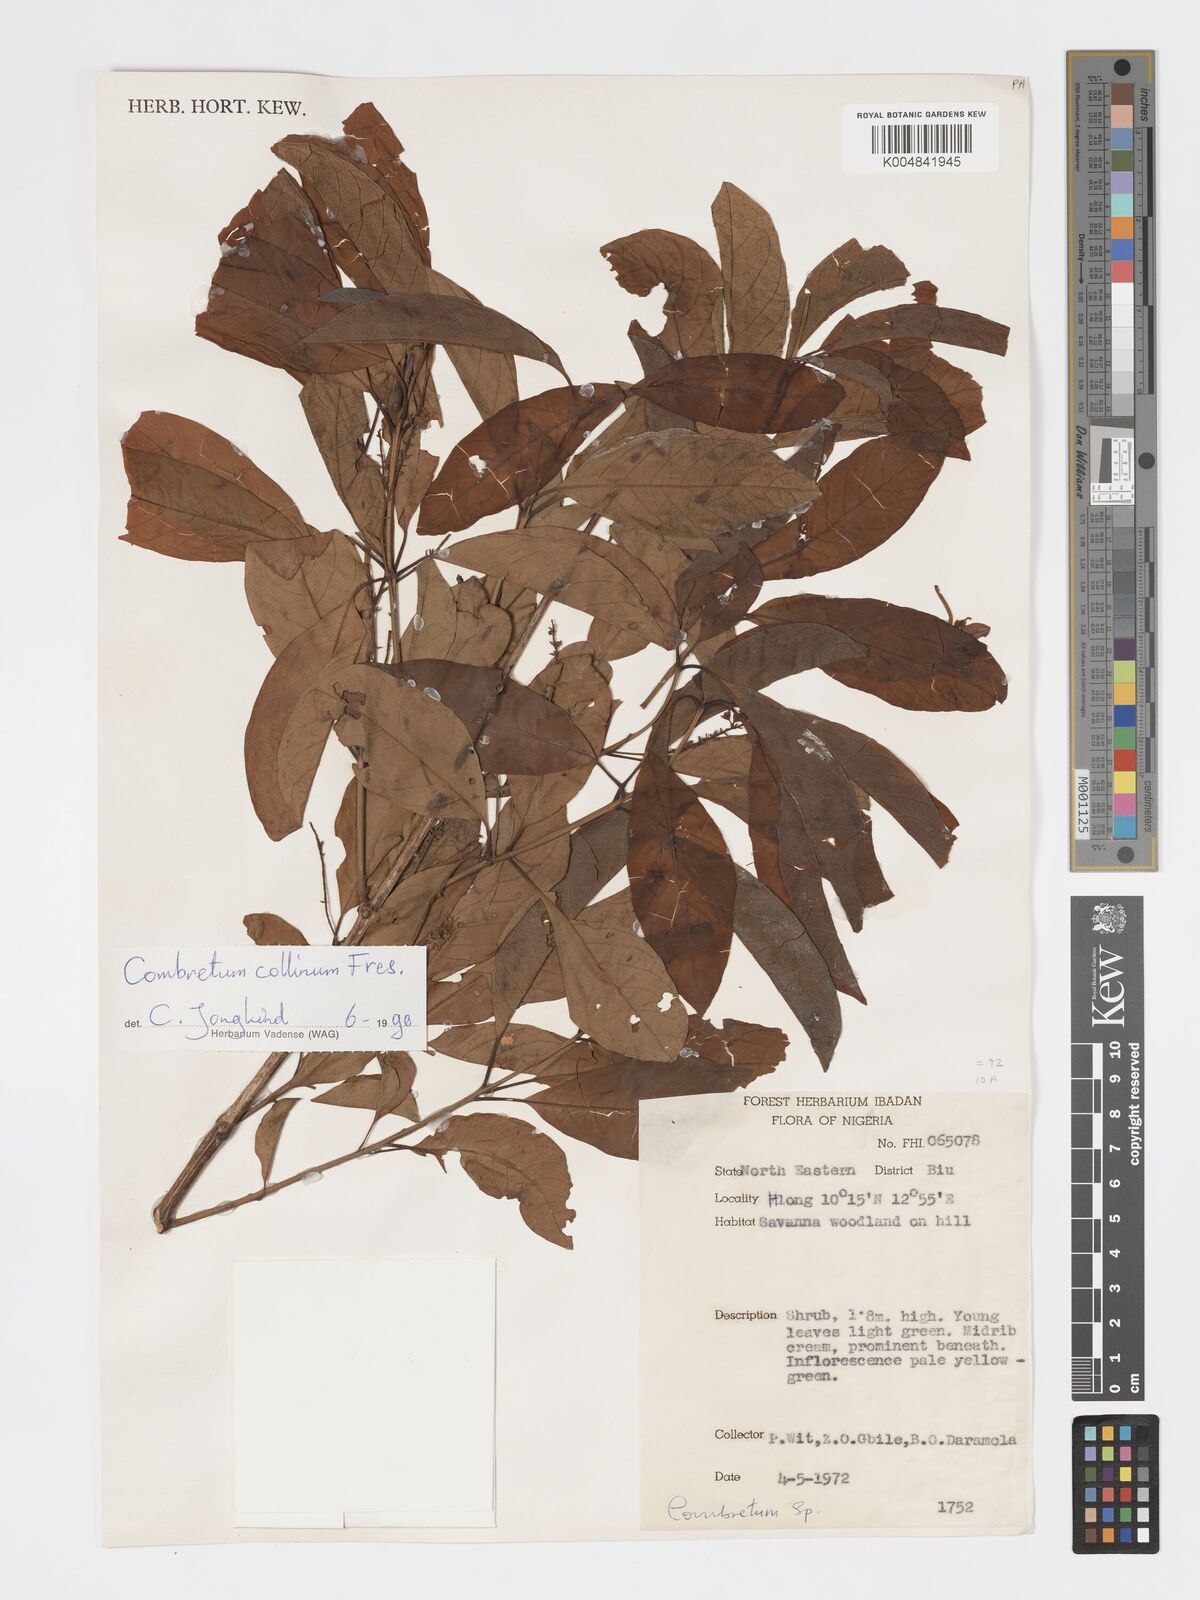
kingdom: Plantae
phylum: Tracheophyta
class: Magnoliopsida
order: Myrtales
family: Combretaceae
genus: Combretum
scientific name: Combretum collinum
